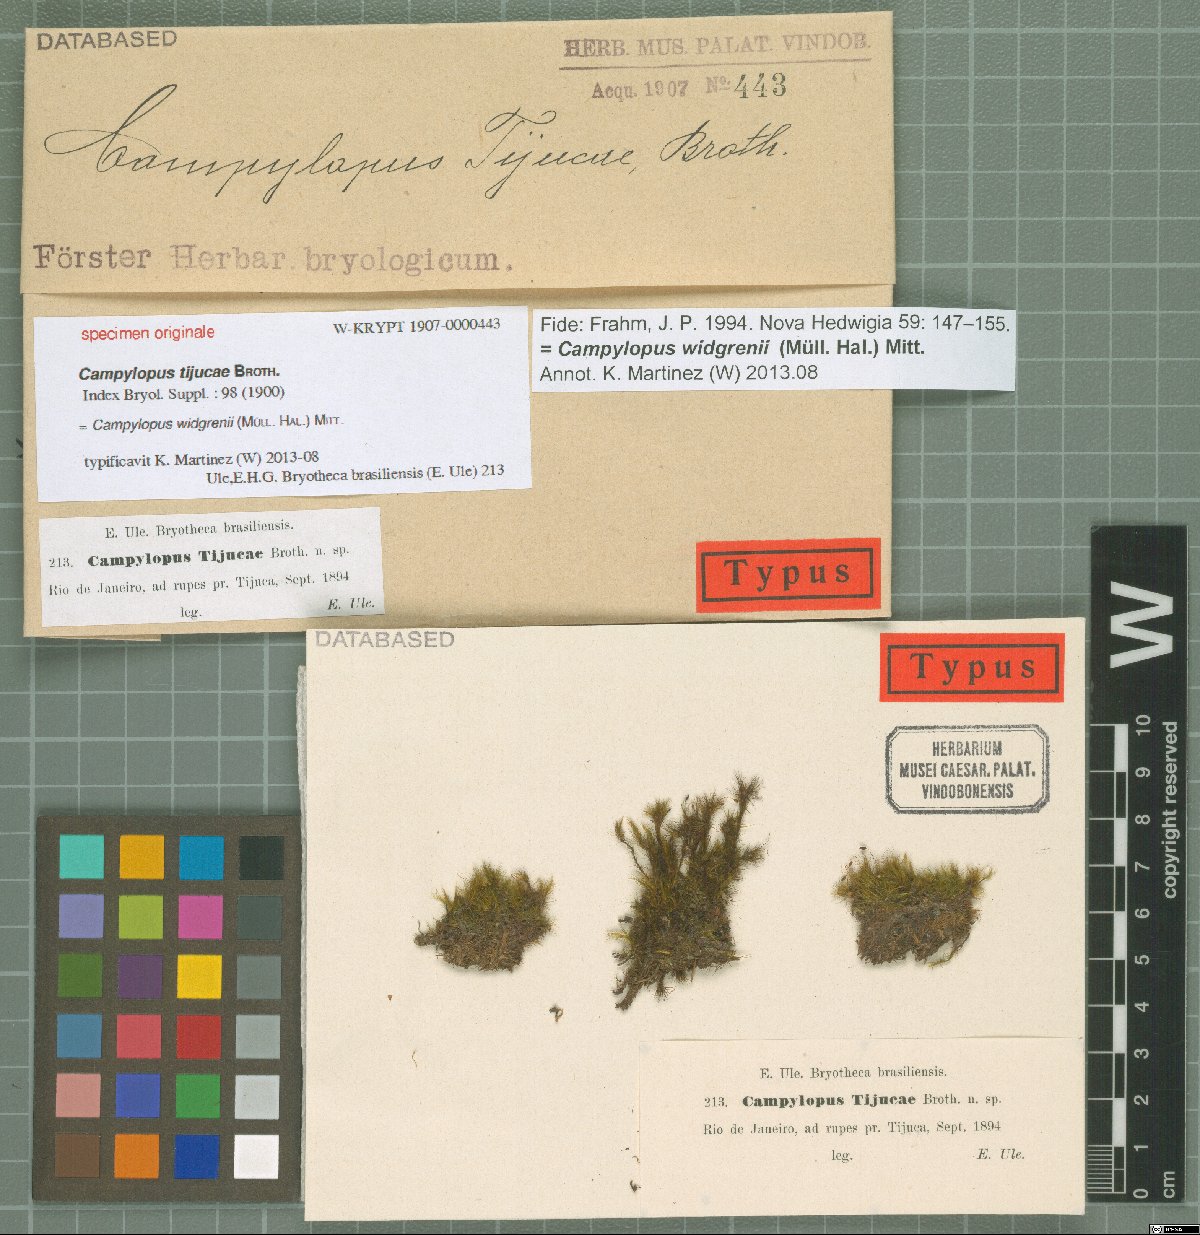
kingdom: Protozoa
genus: Campylopus
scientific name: Campylopus
